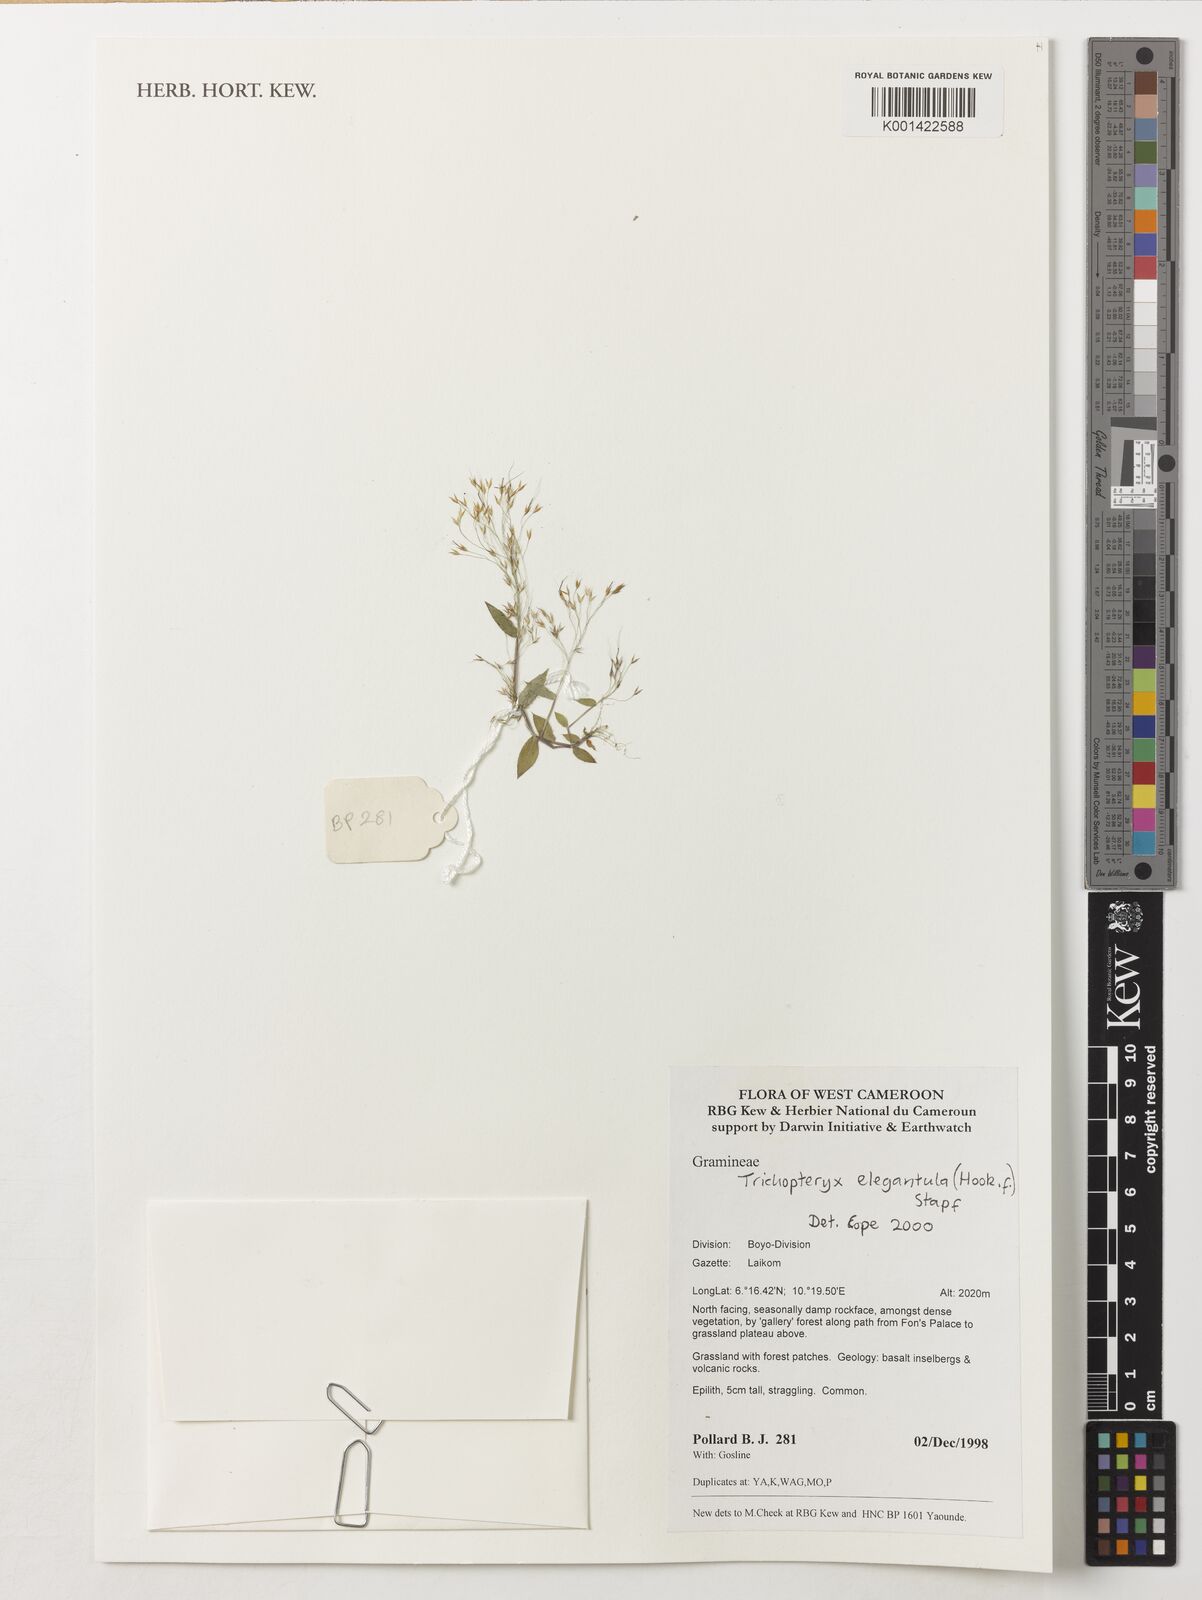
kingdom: Plantae
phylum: Tracheophyta
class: Liliopsida
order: Poales
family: Poaceae
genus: Trichopteryx
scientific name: Trichopteryx elegantula
